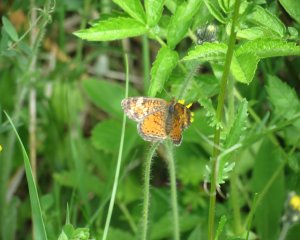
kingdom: Animalia
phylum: Arthropoda
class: Insecta
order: Lepidoptera
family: Nymphalidae
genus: Phyciodes
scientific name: Phyciodes tharos
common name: Northern Crescent
